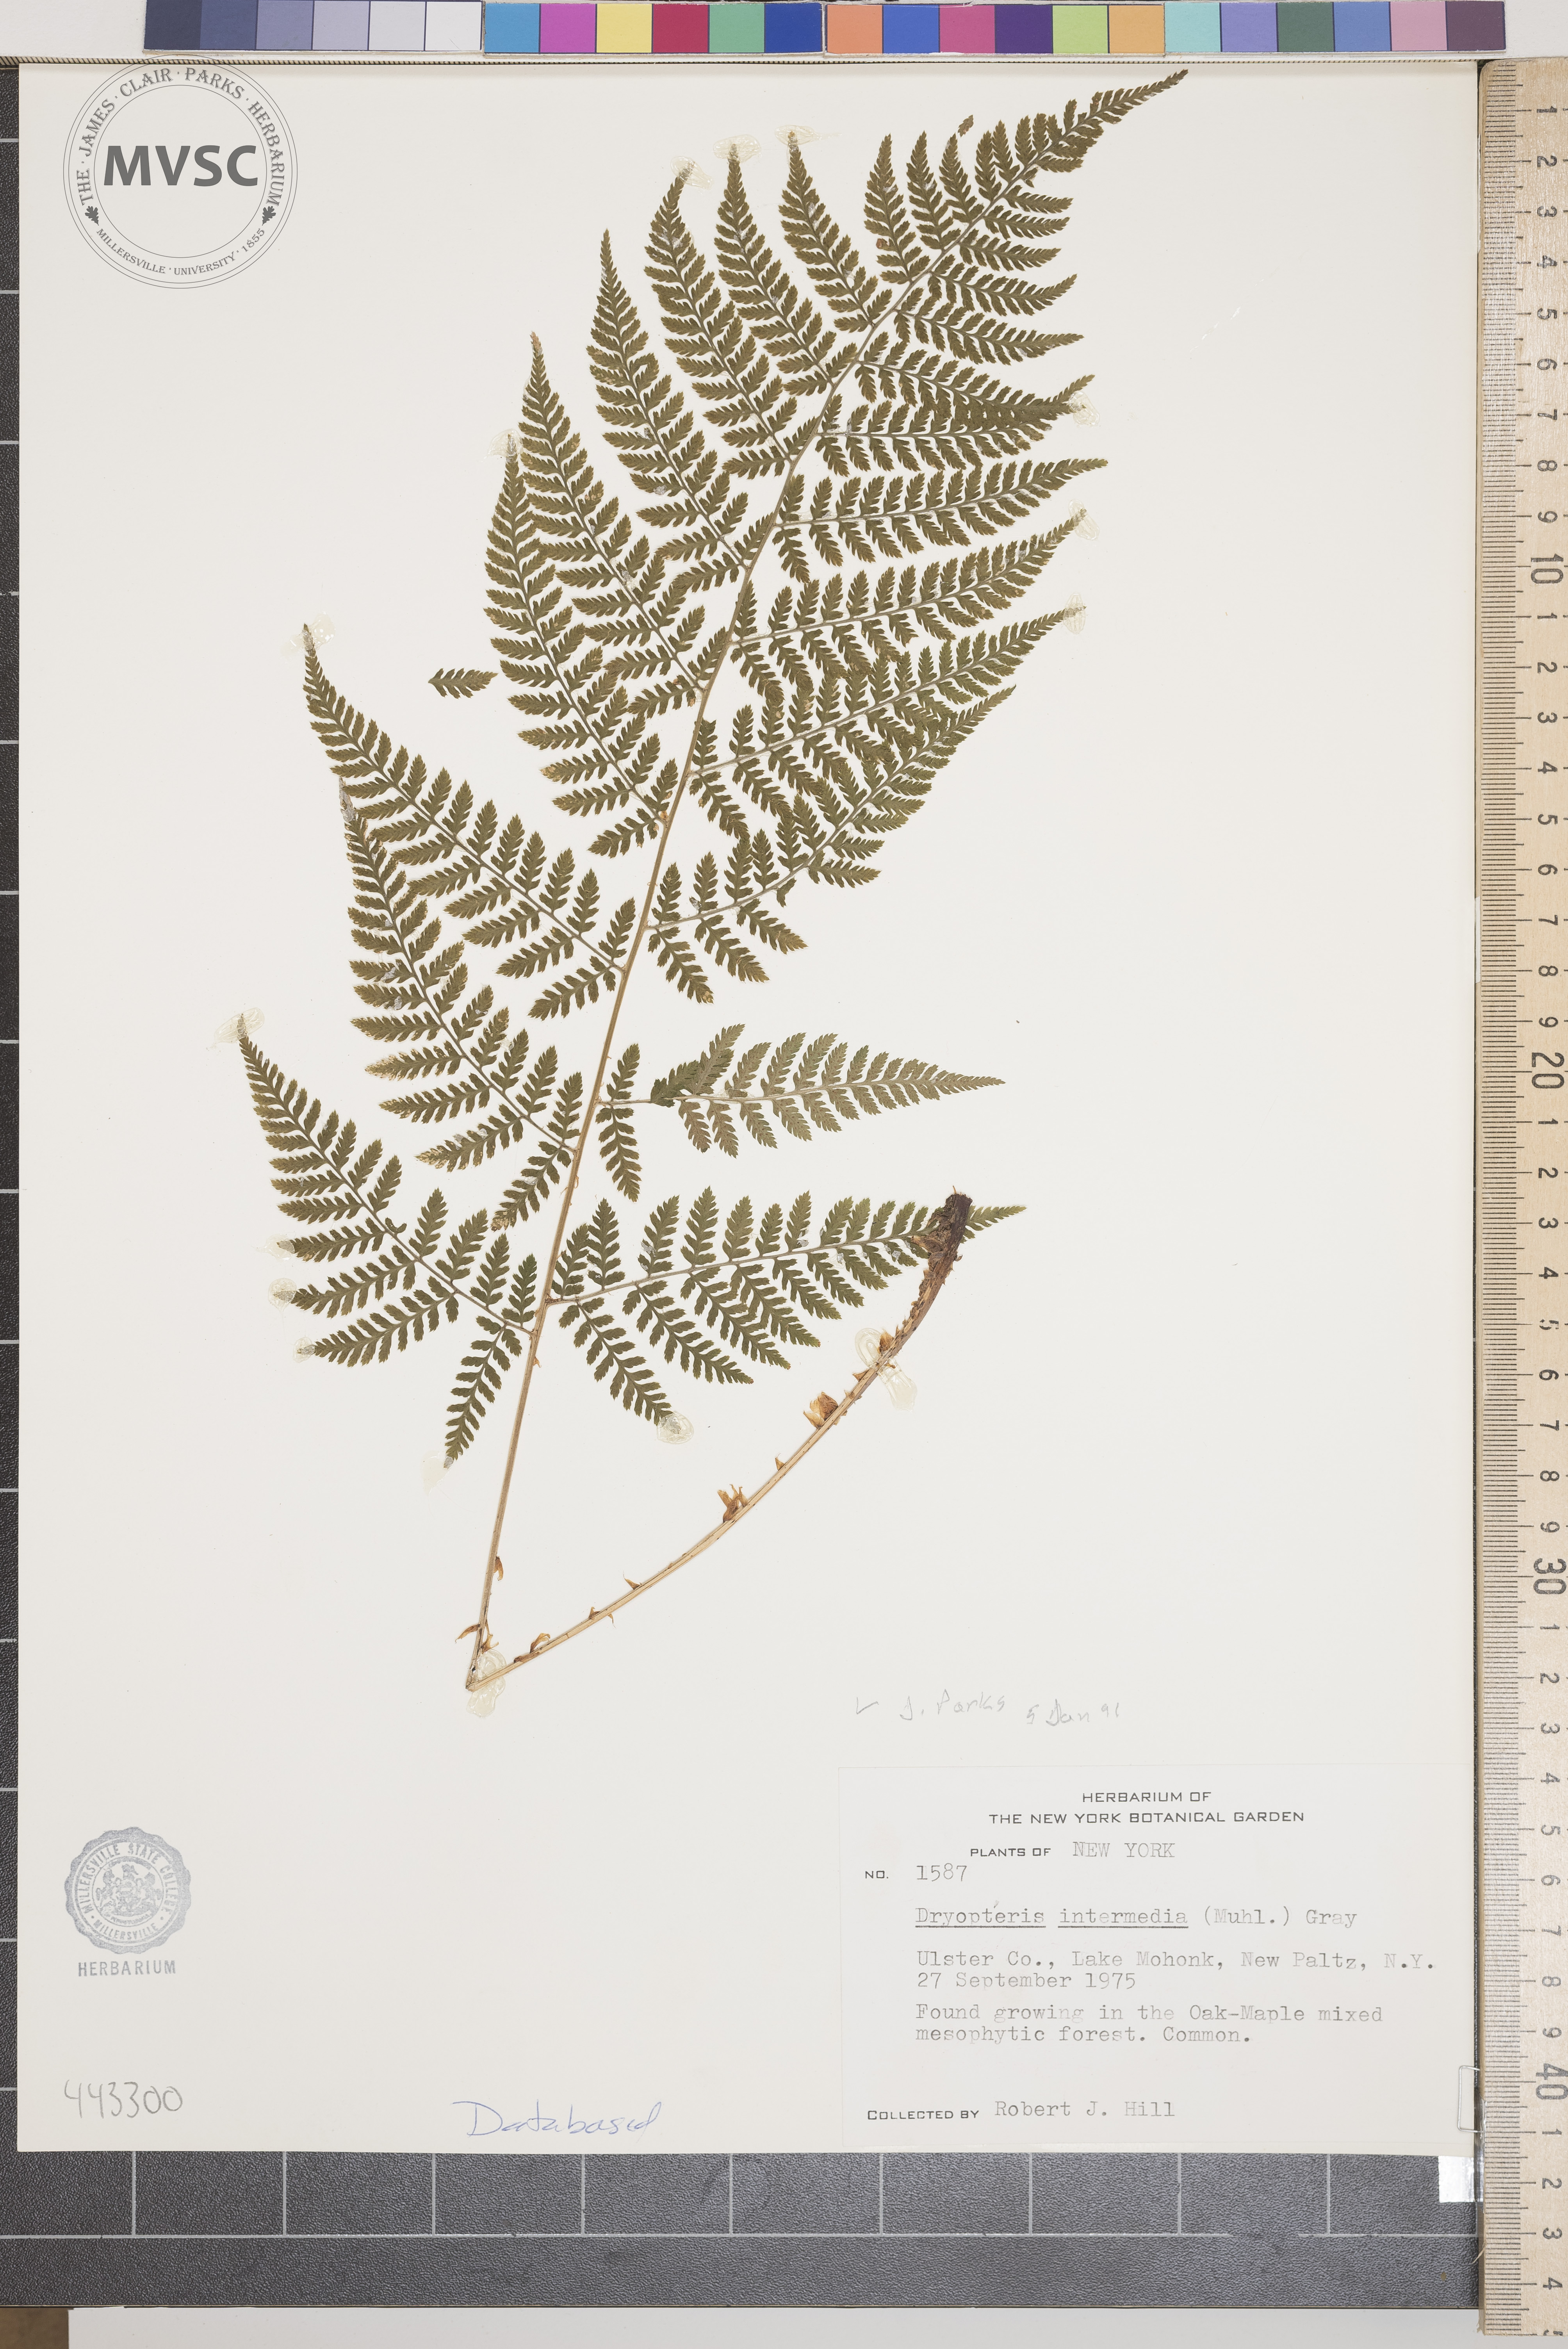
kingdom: Plantae
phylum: Tracheophyta
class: Polypodiopsida
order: Polypodiales
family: Dryopteridaceae
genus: Dryopteris
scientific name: Dryopteris intermedia
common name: Evergreen wood fern
